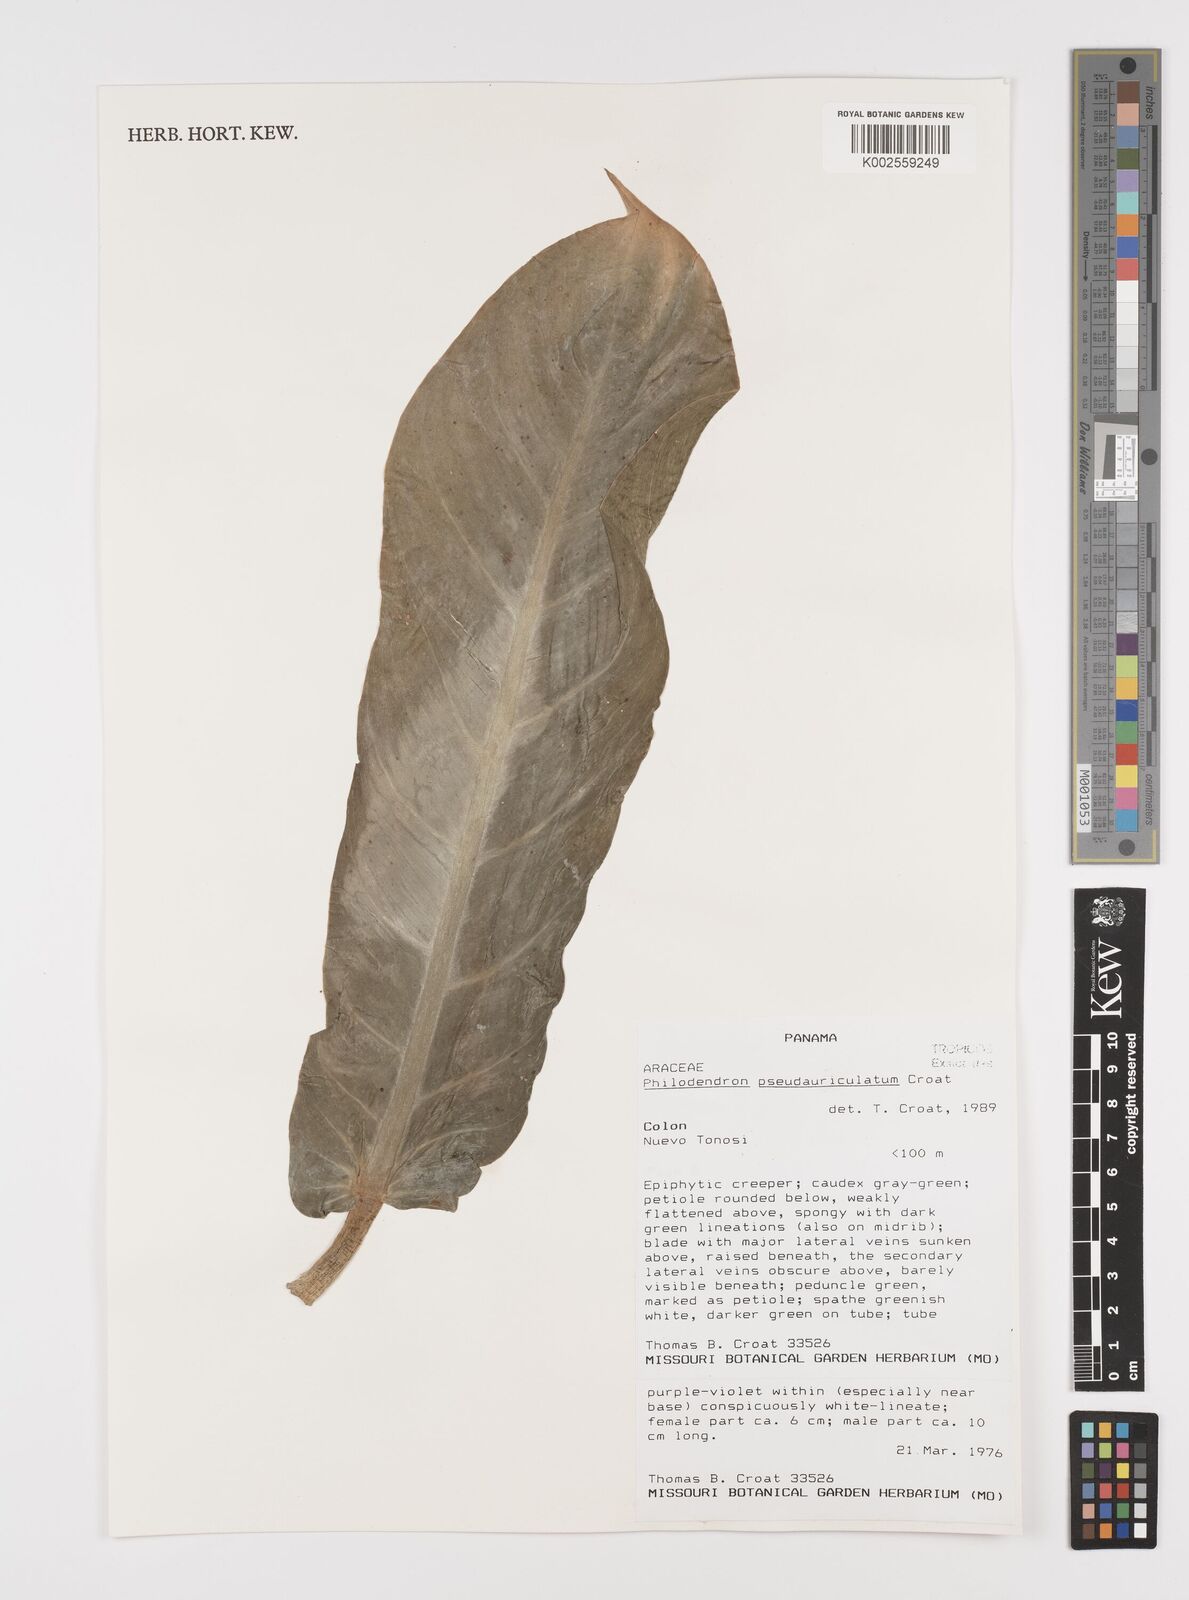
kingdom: Plantae
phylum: Tracheophyta
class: Liliopsida
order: Alismatales
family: Araceae
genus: Philodendron
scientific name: Philodendron pseudauriculatum
